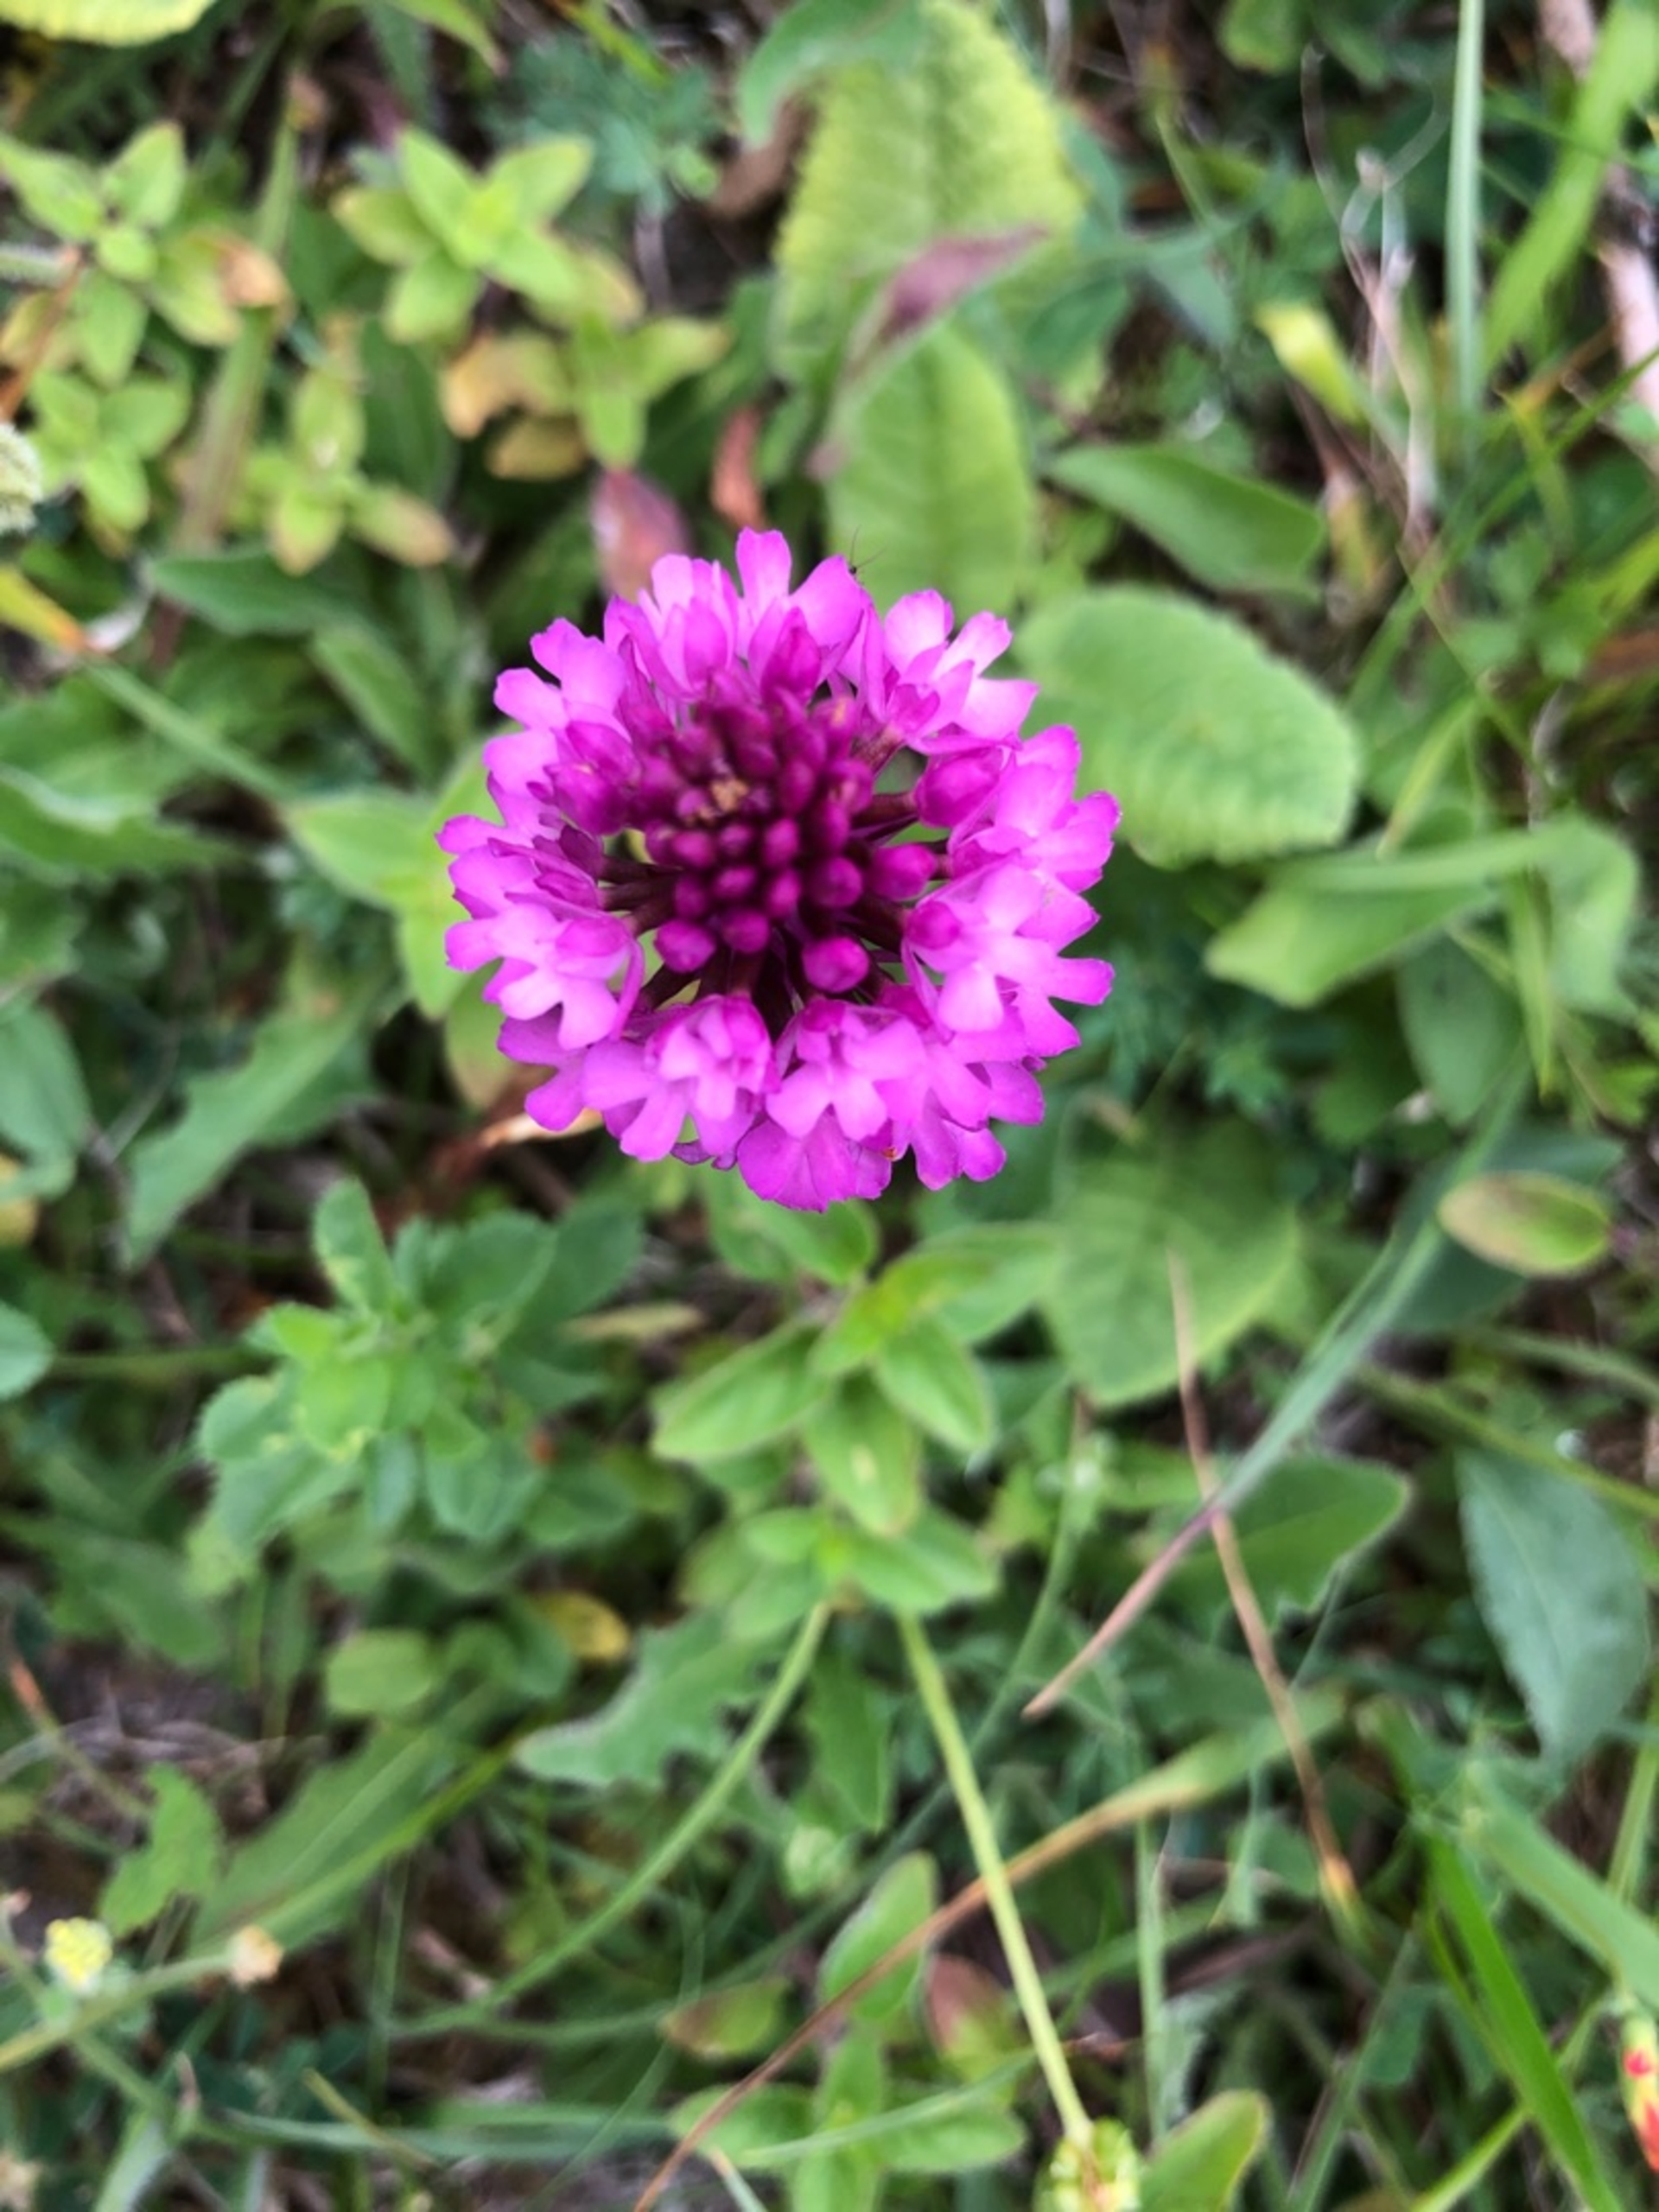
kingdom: Plantae
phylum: Tracheophyta
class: Liliopsida
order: Asparagales
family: Orchidaceae
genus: Anacamptis
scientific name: Anacamptis pyramidalis
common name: Horndrager
